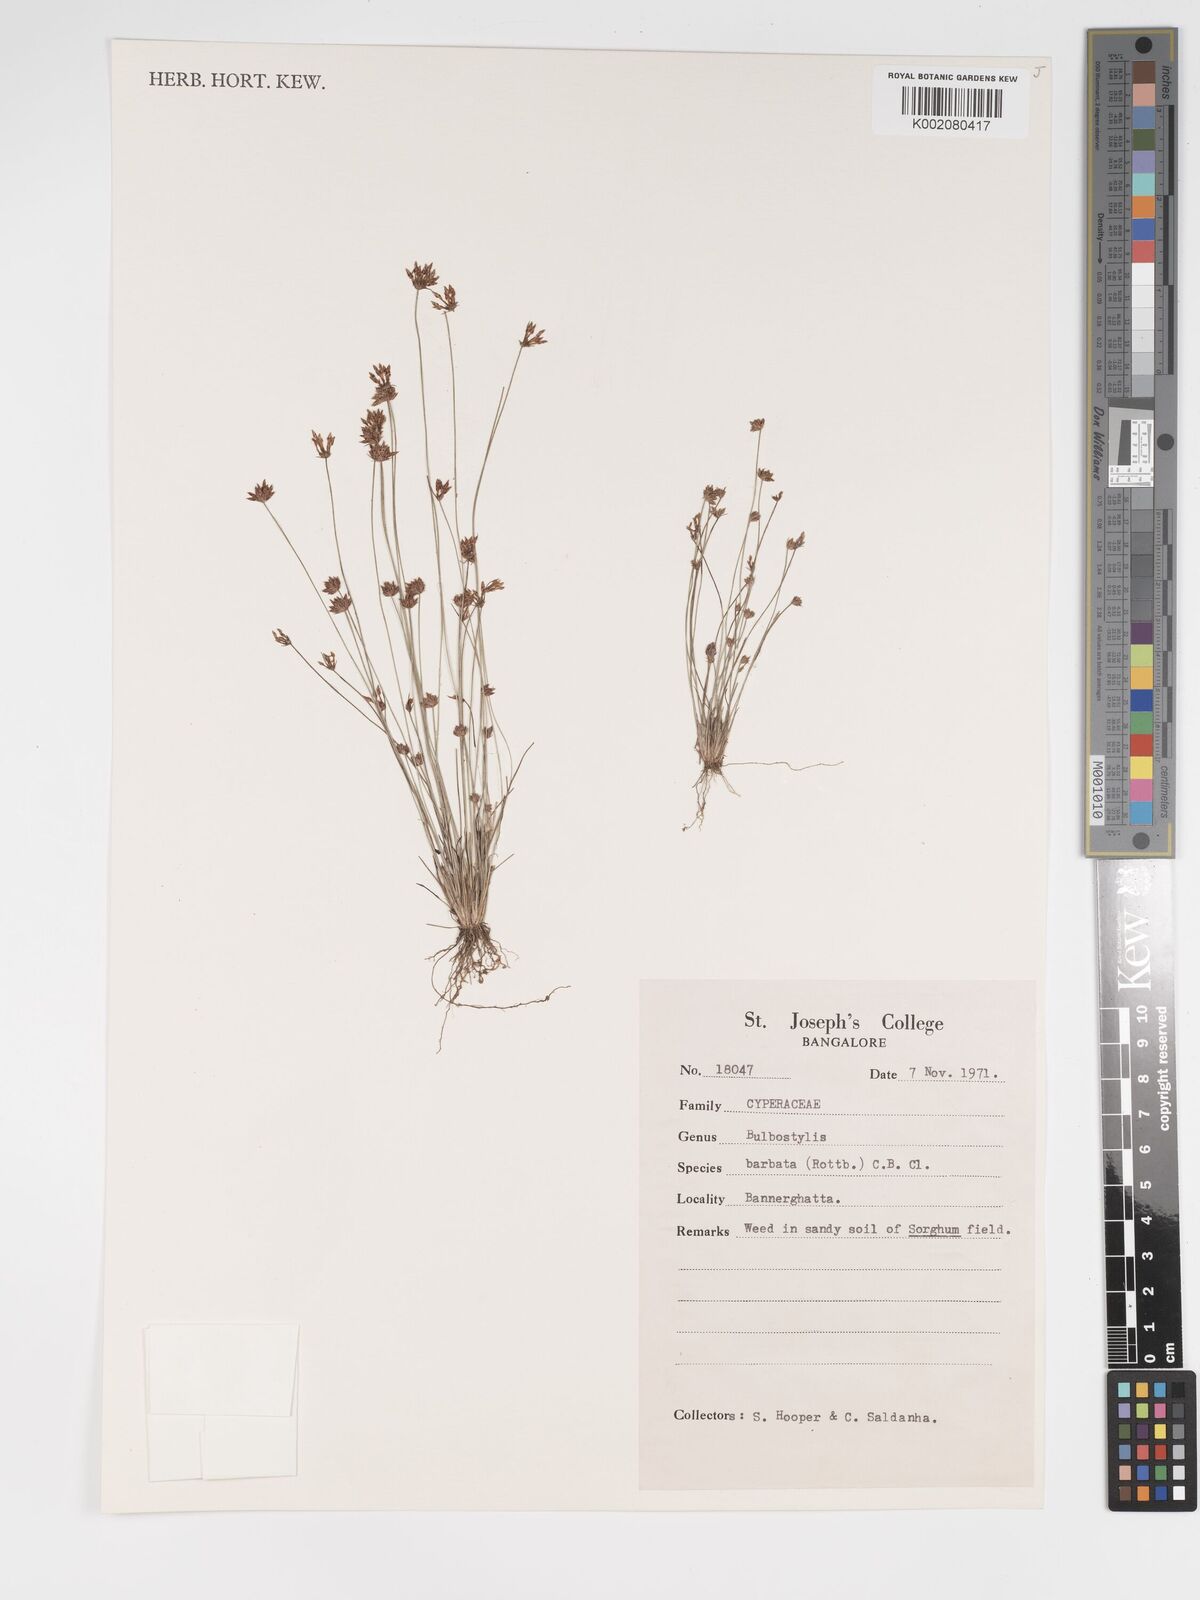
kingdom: Plantae
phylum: Tracheophyta
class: Liliopsida
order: Poales
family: Cyperaceae
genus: Bulbostylis
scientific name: Bulbostylis
